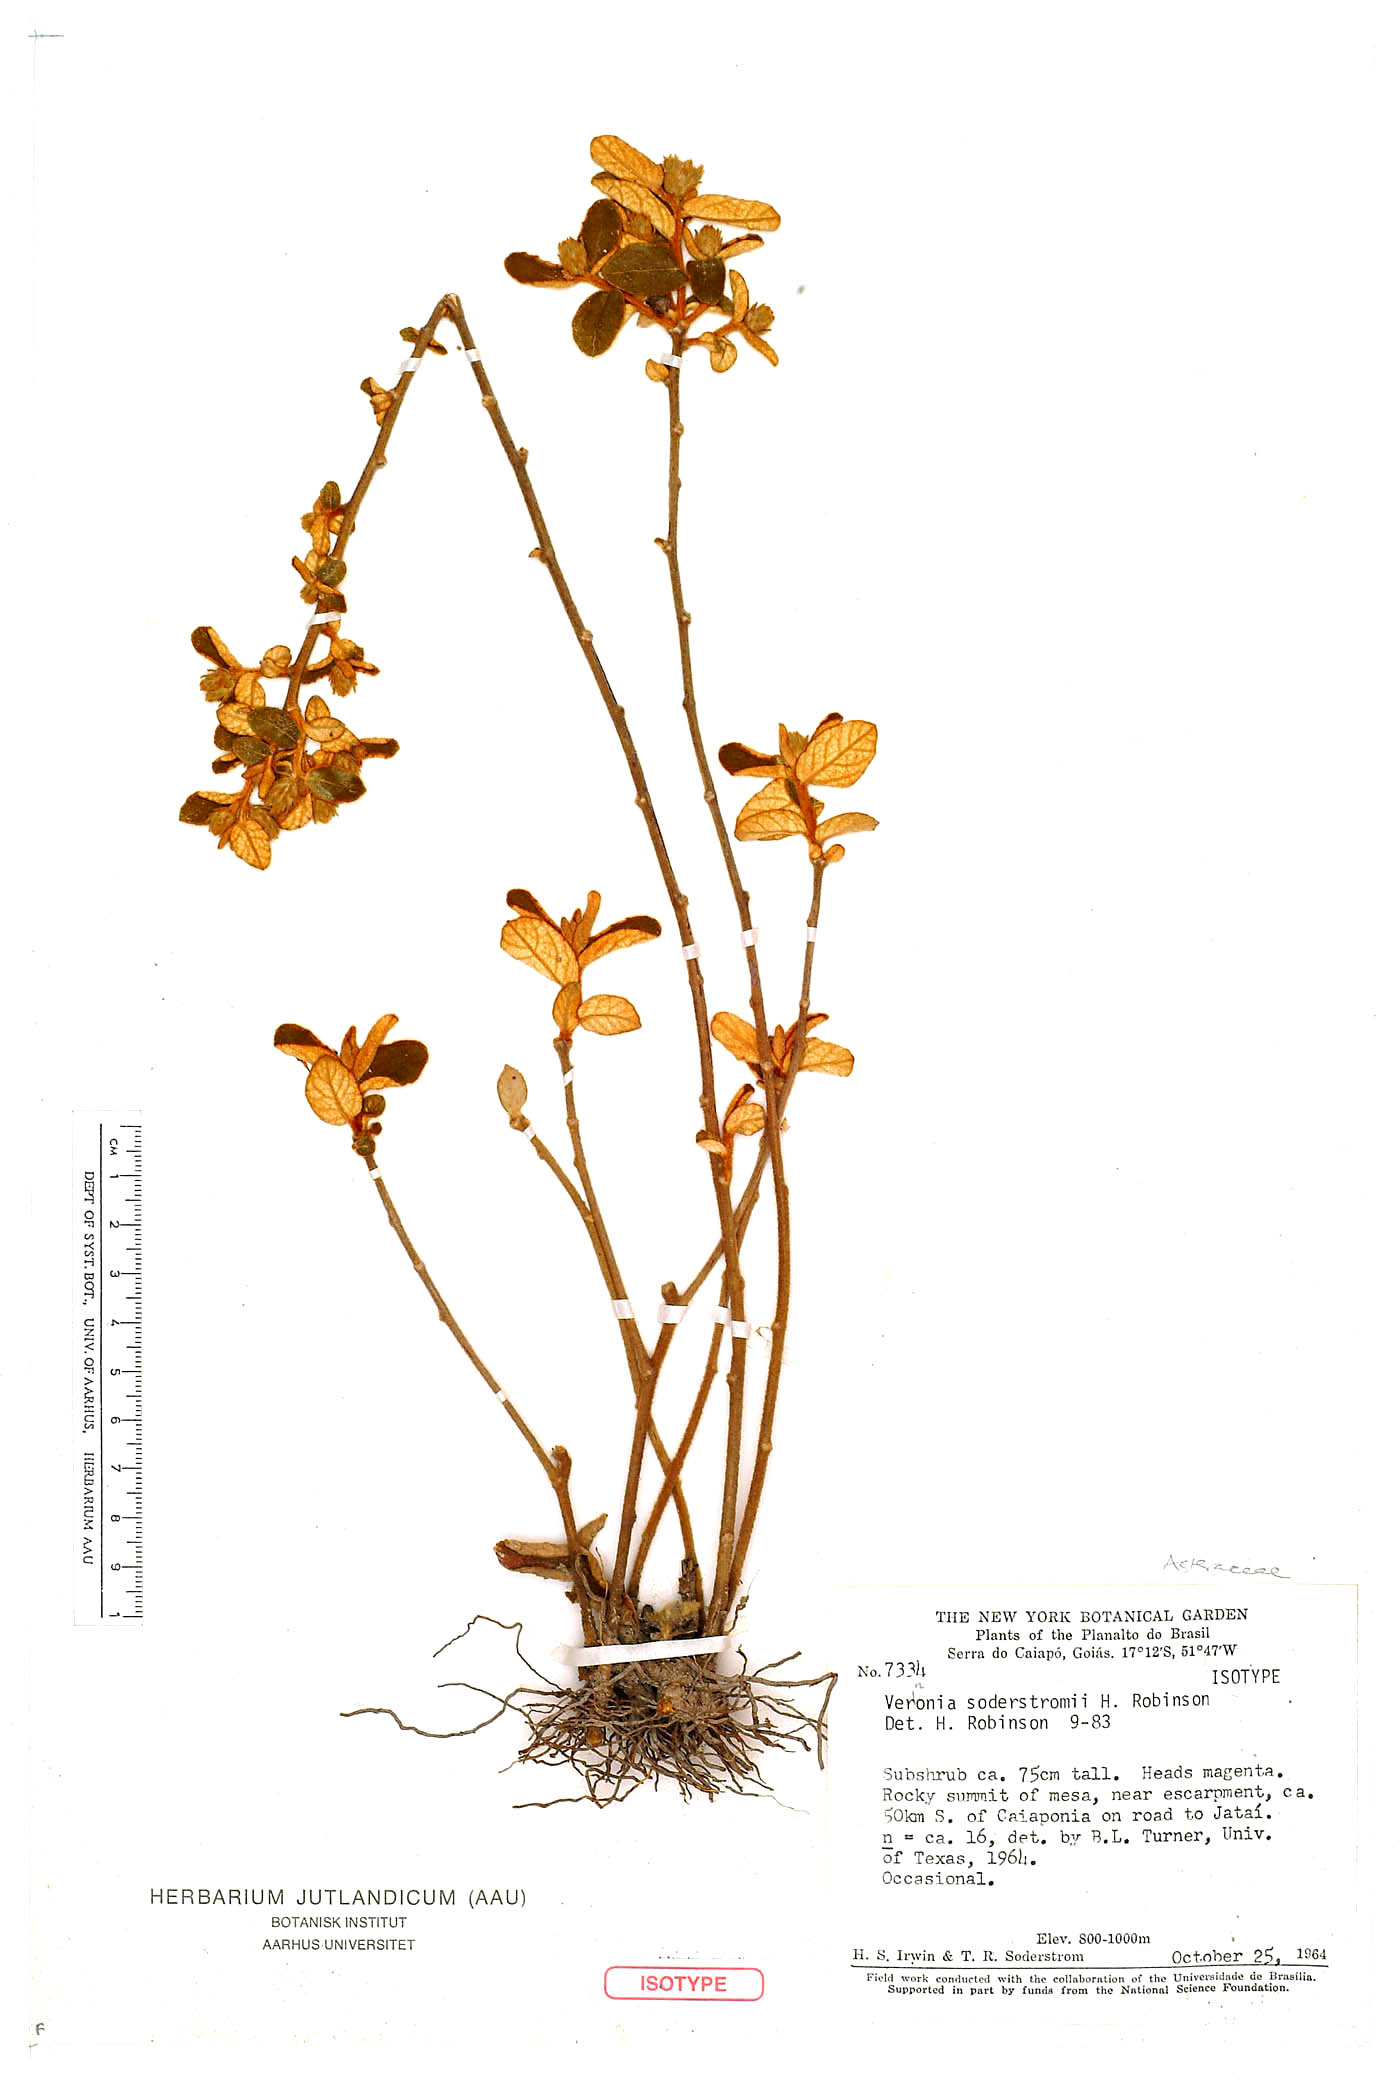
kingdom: Plantae
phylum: Tracheophyta
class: Magnoliopsida
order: Asterales
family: Asteraceae
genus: Lessingianthus
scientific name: Lessingianthus soderstroemii
